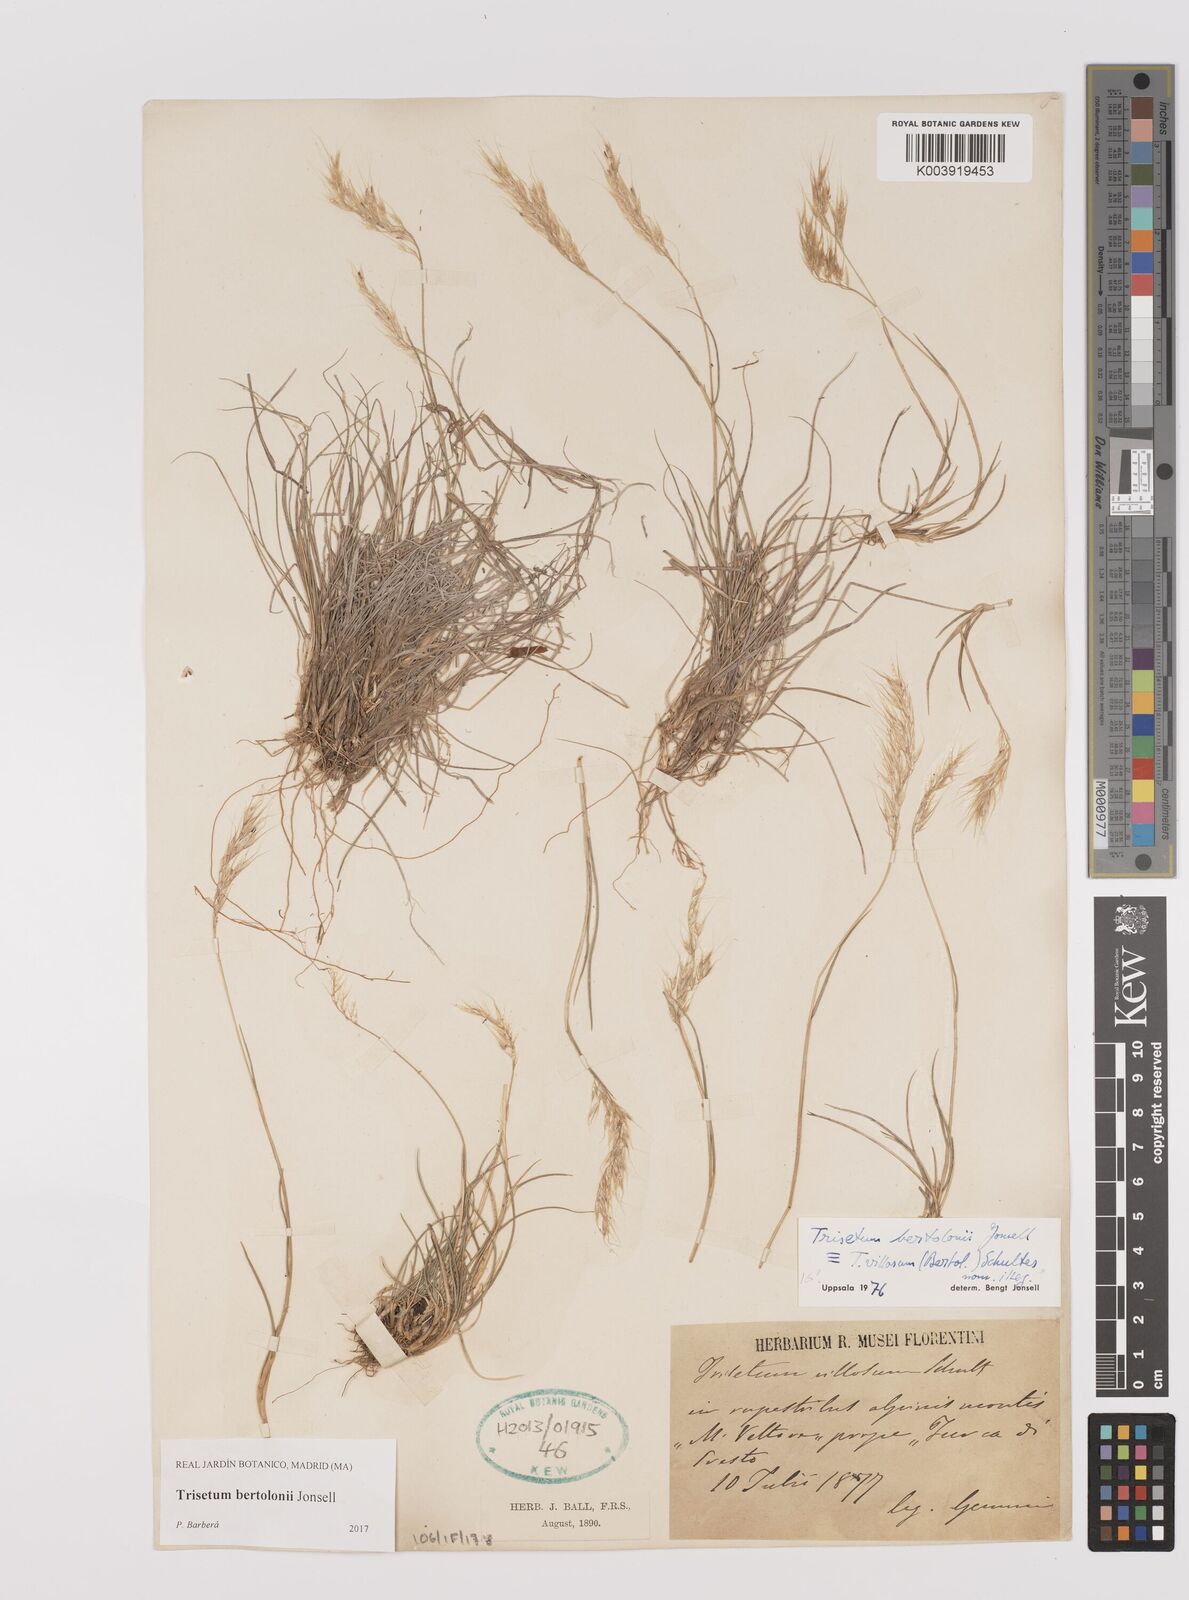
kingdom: Plantae
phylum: Tracheophyta
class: Liliopsida
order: Poales
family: Poaceae
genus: Trisetum
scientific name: Trisetum bertolonii
